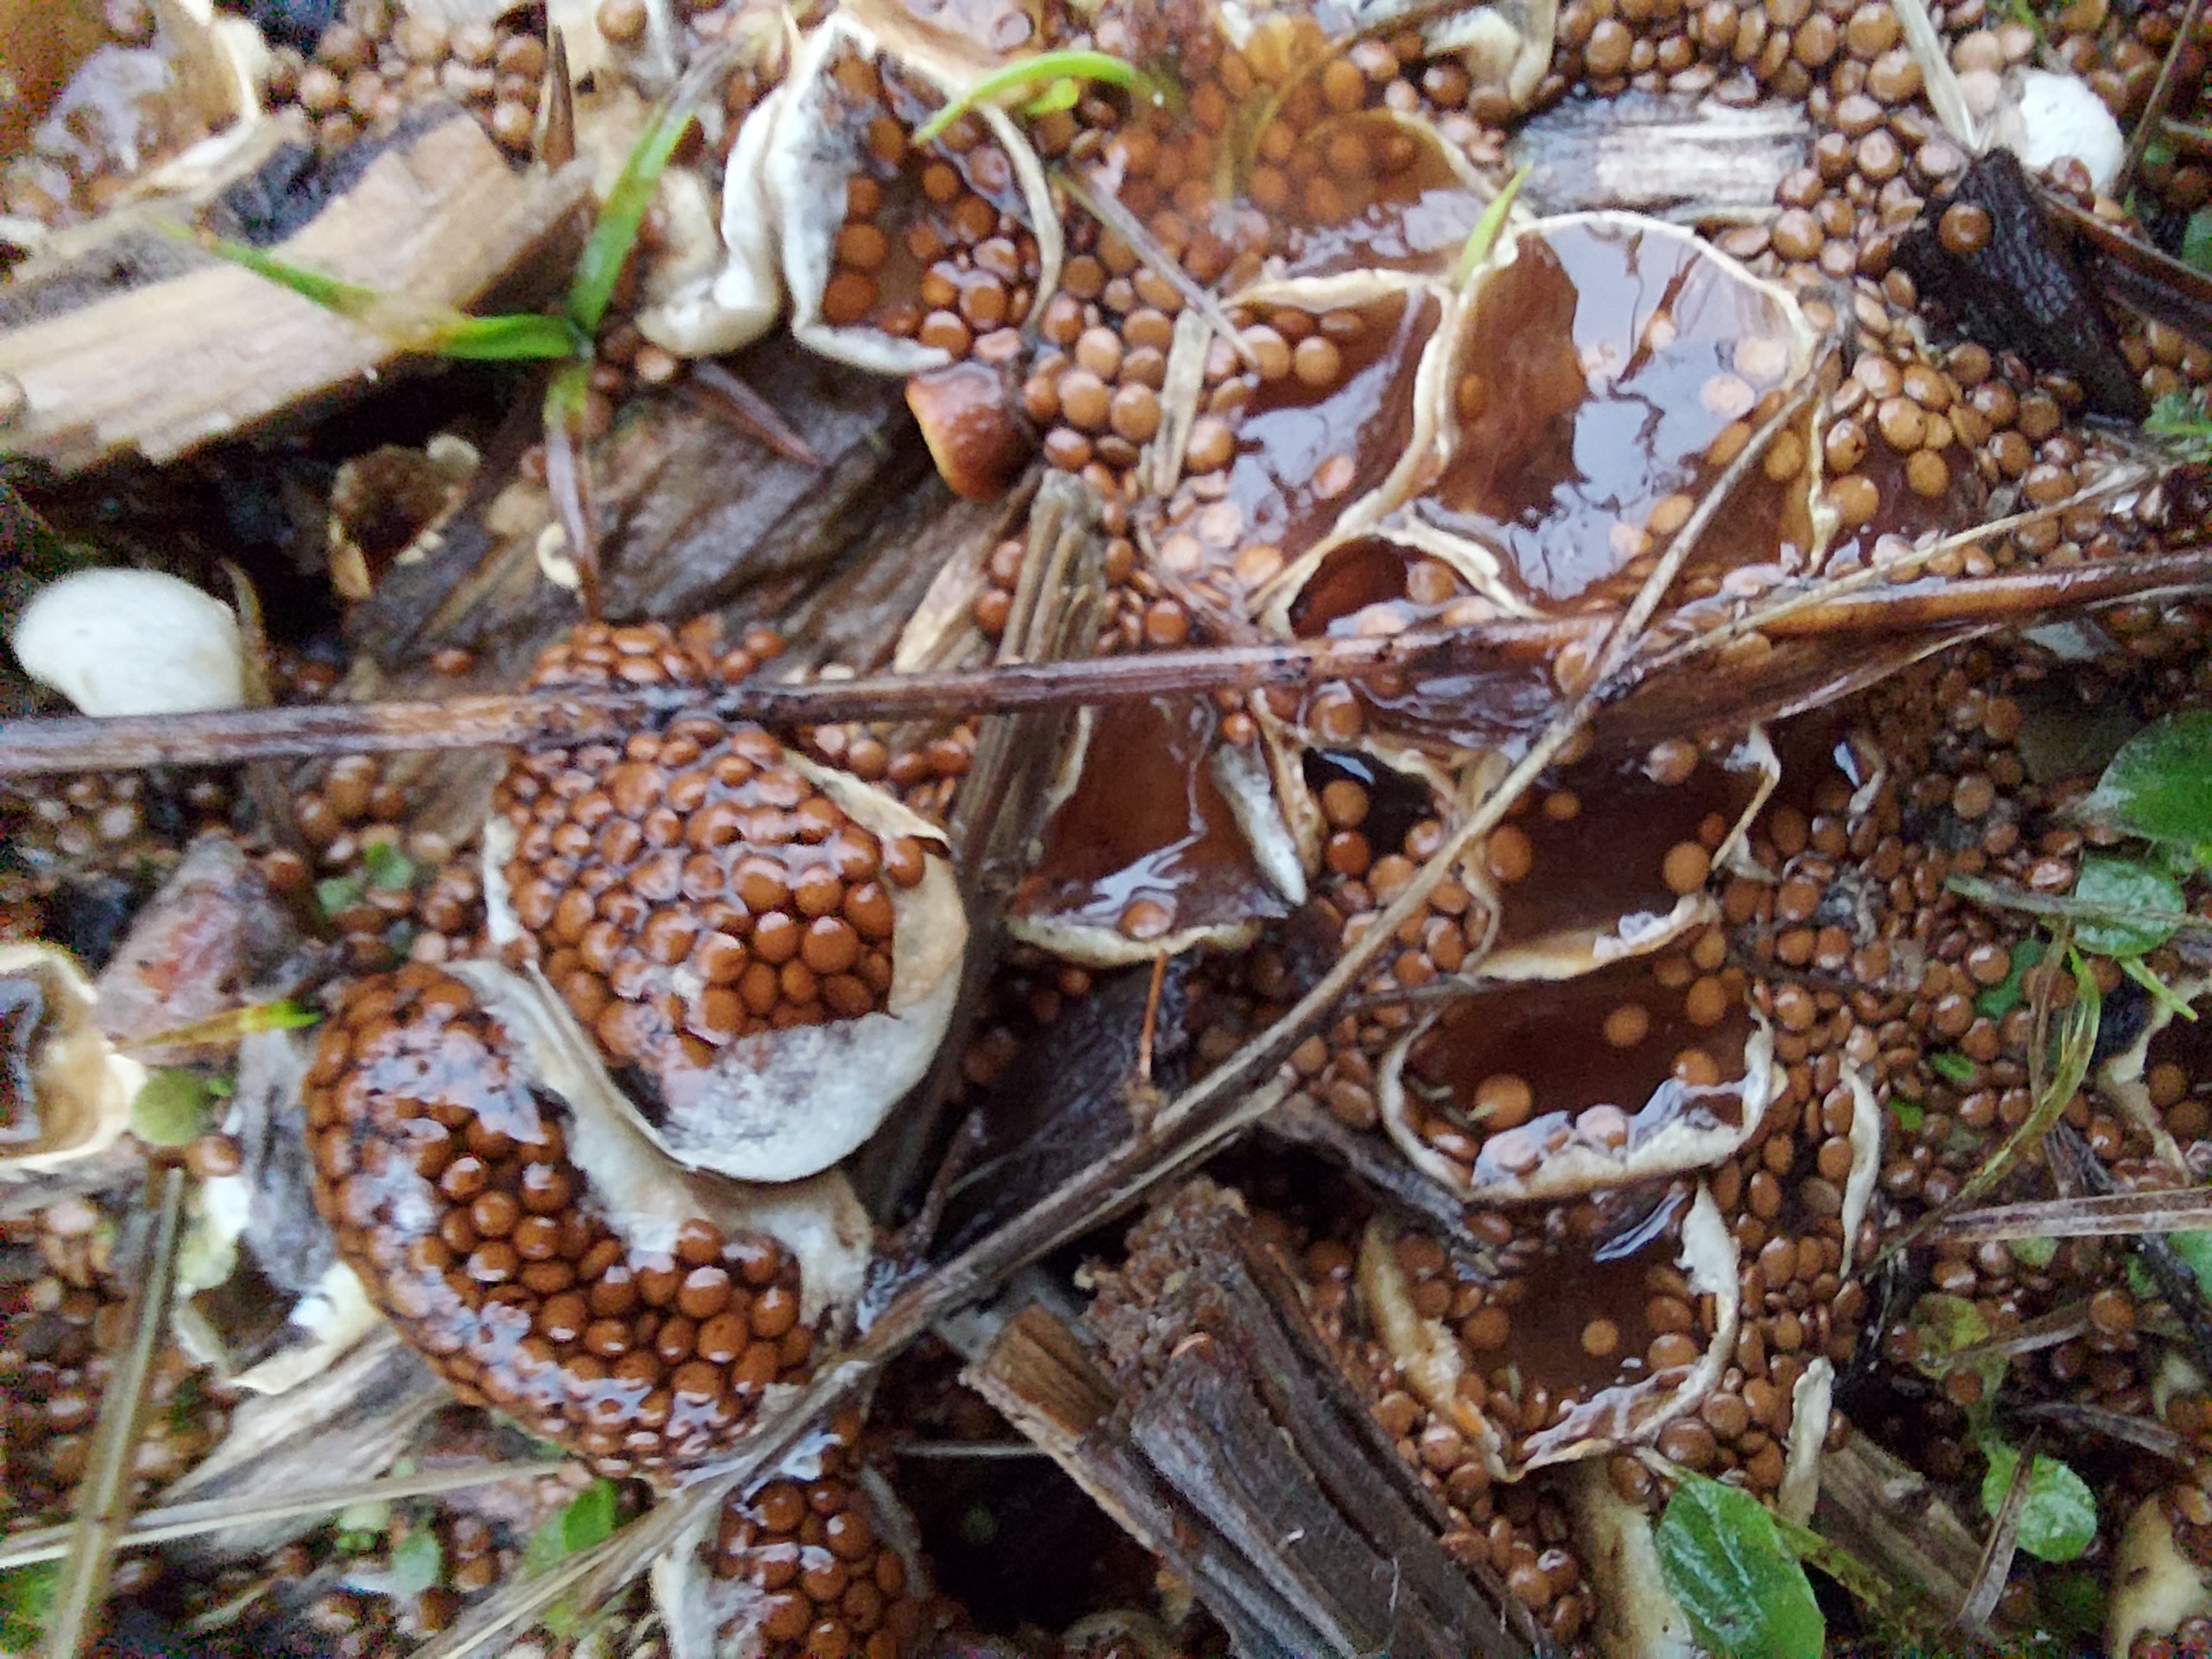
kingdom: Fungi
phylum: Basidiomycota
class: Agaricomycetes
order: Agaricales
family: Agaricaceae
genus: Nidularia
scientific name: Nidularia deformis
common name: Pea-shaped bird's nest
